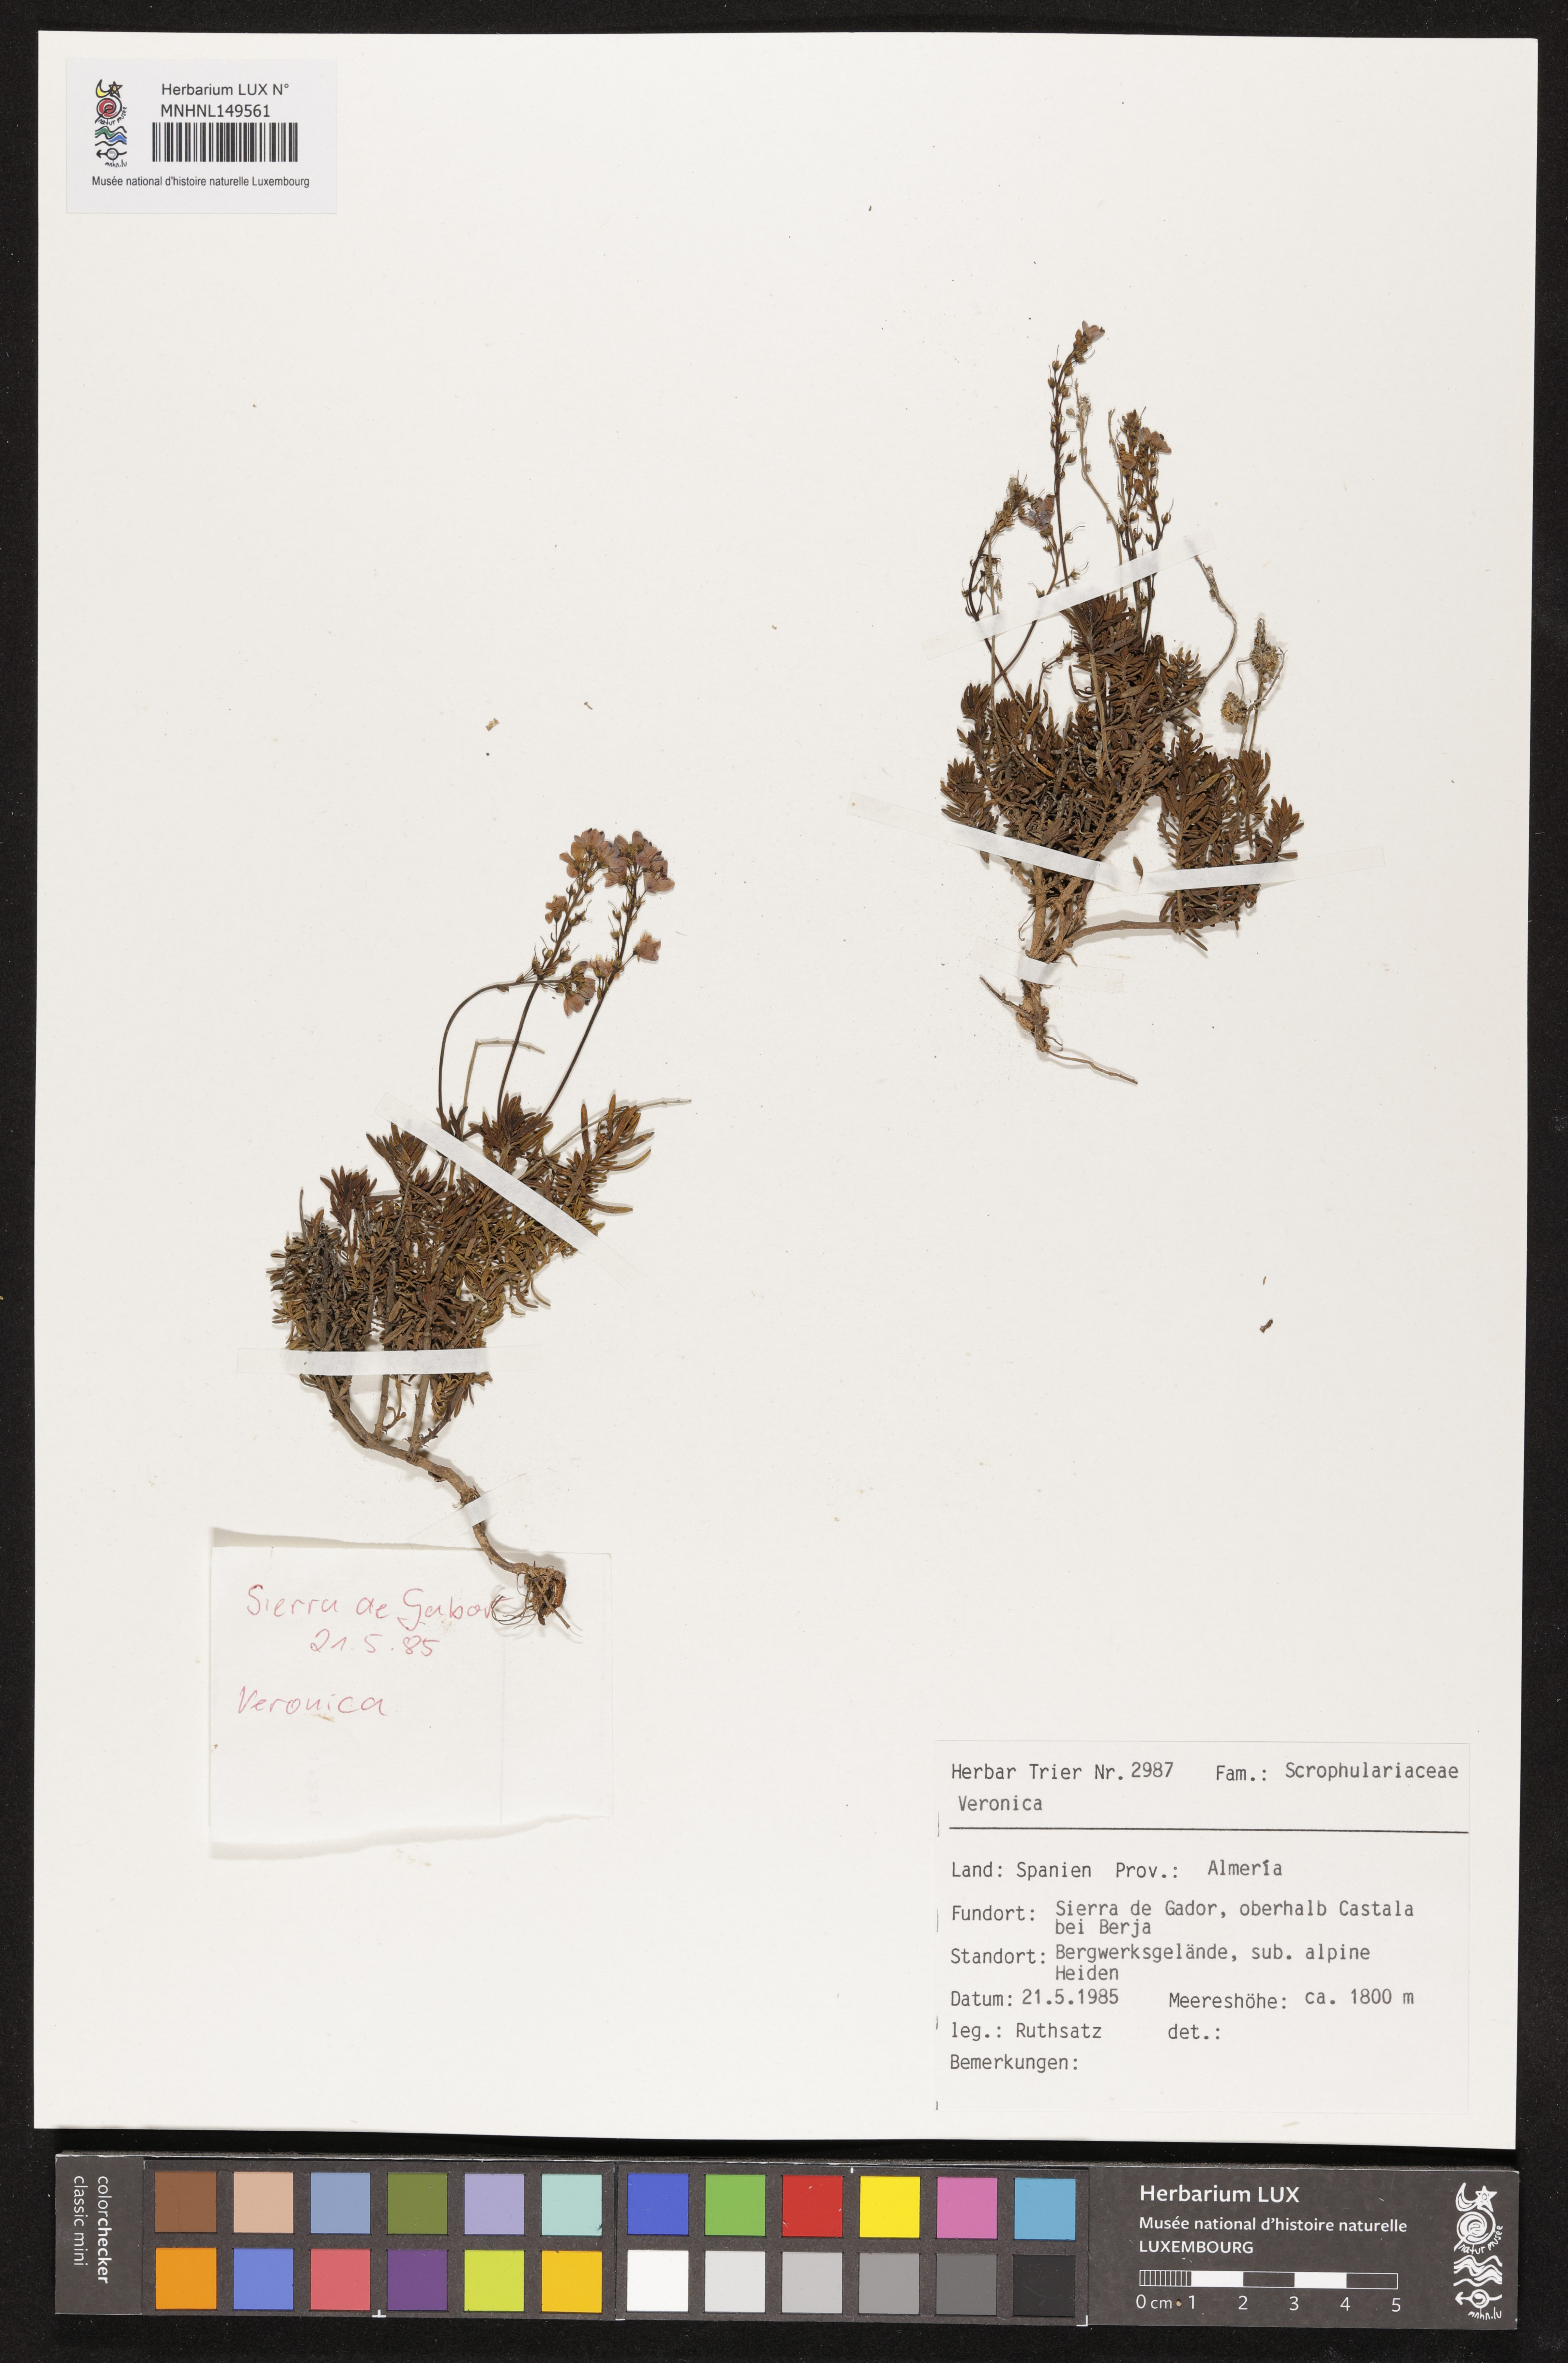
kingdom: Plantae
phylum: Tracheophyta
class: Magnoliopsida
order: Lamiales
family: Plantaginaceae
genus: Veronica
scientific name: Veronica
